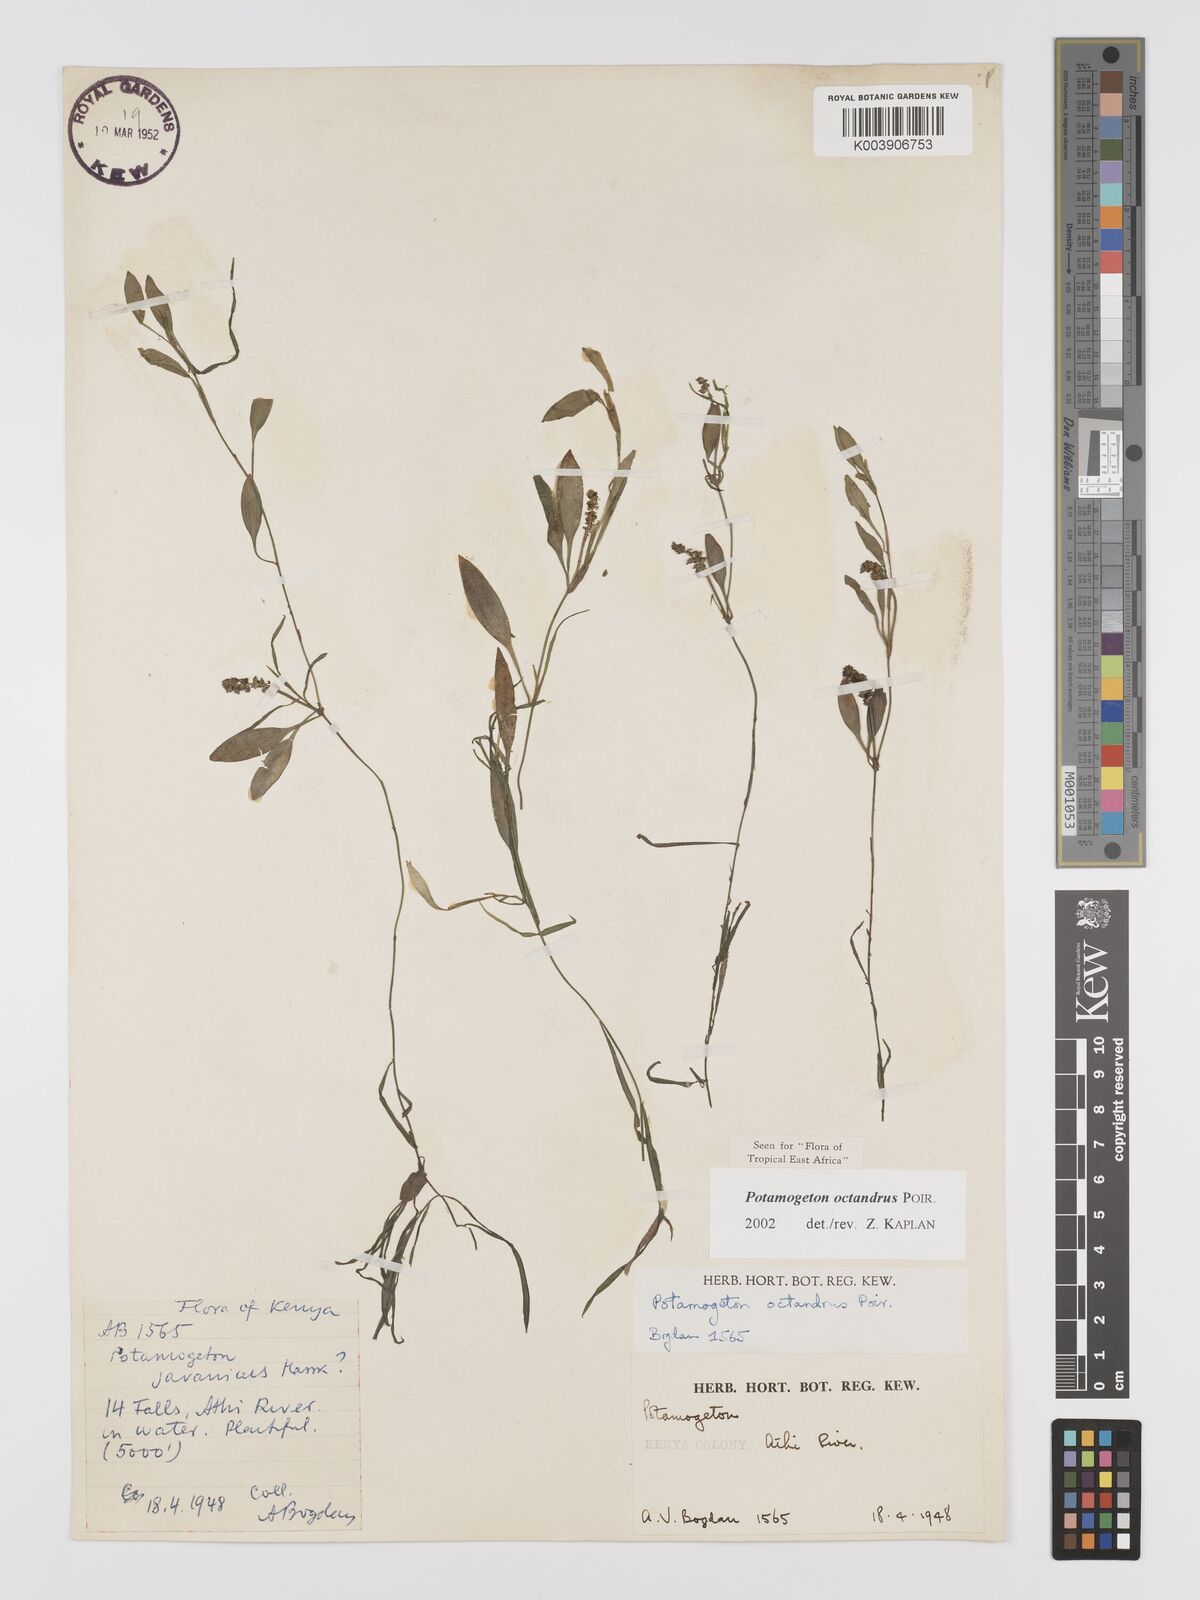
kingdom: Plantae
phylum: Tracheophyta
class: Liliopsida
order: Alismatales
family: Potamogetonaceae
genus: Potamogeton
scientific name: Potamogeton octandrus
